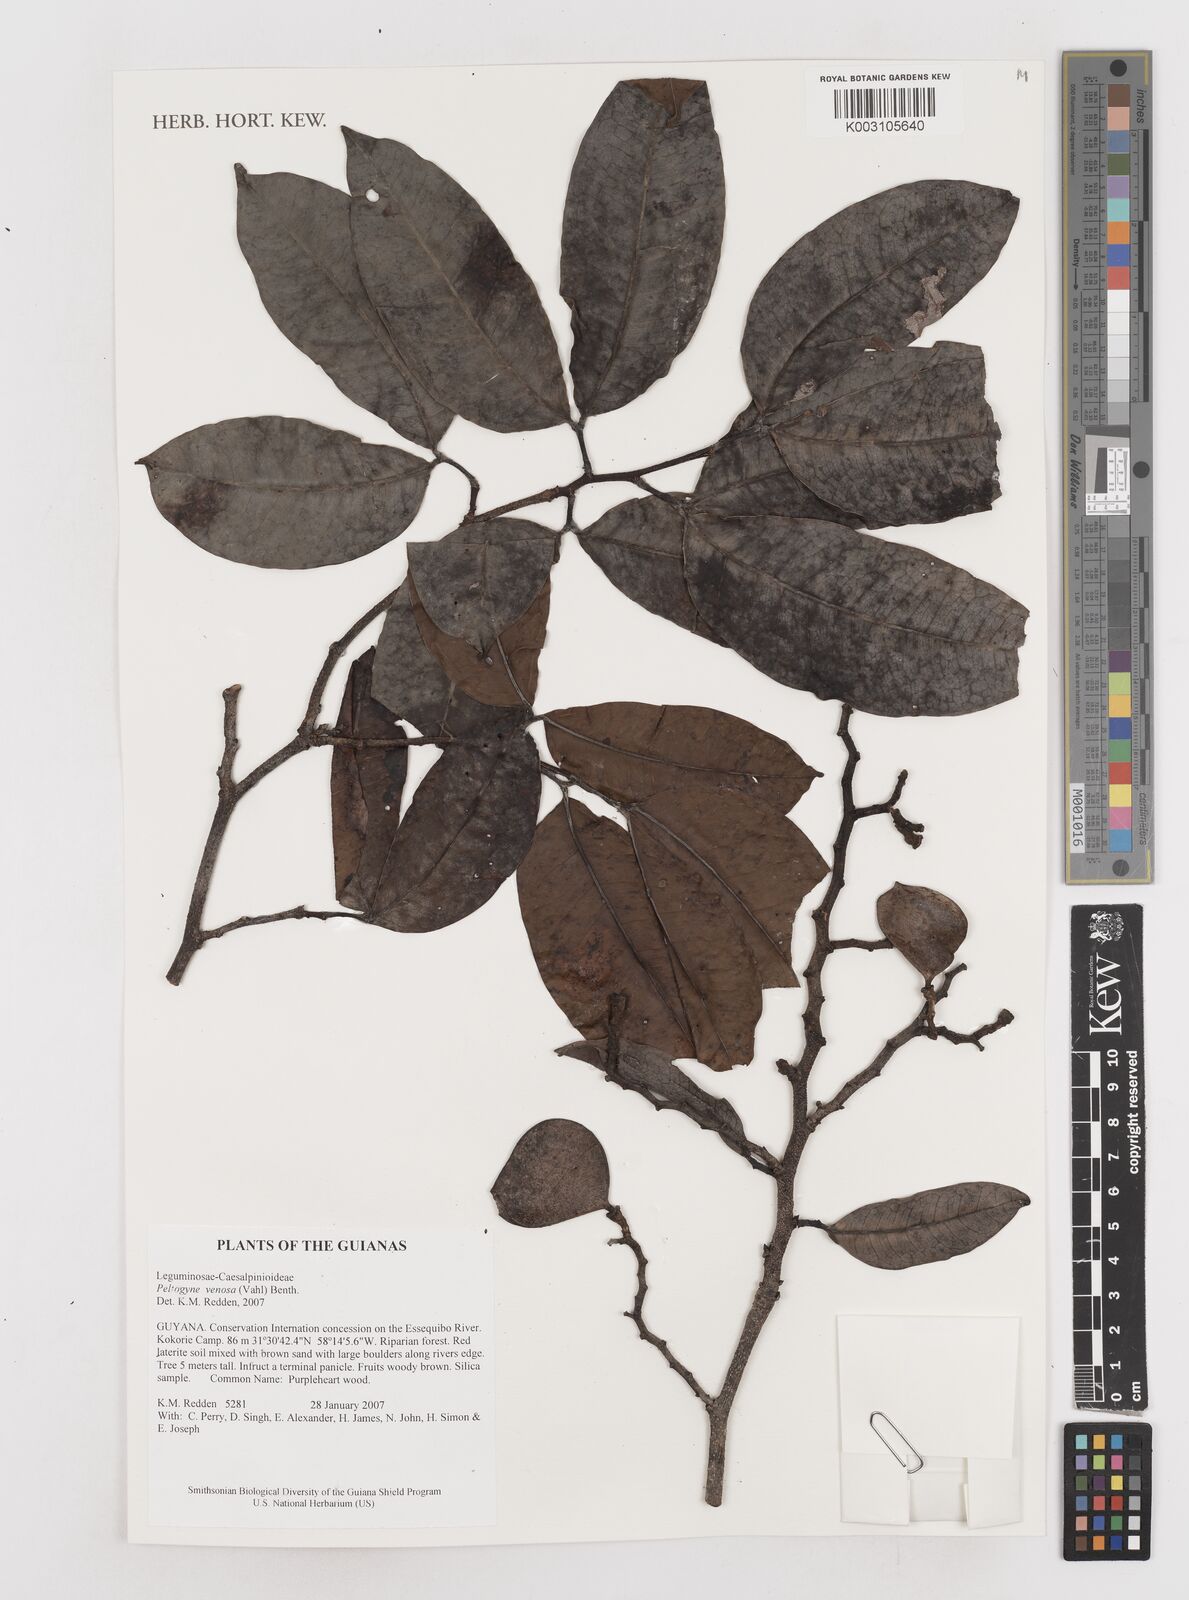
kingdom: Plantae
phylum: Tracheophyta
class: Magnoliopsida
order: Fabales
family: Fabaceae
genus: Peltogyne
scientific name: Peltogyne venosa
